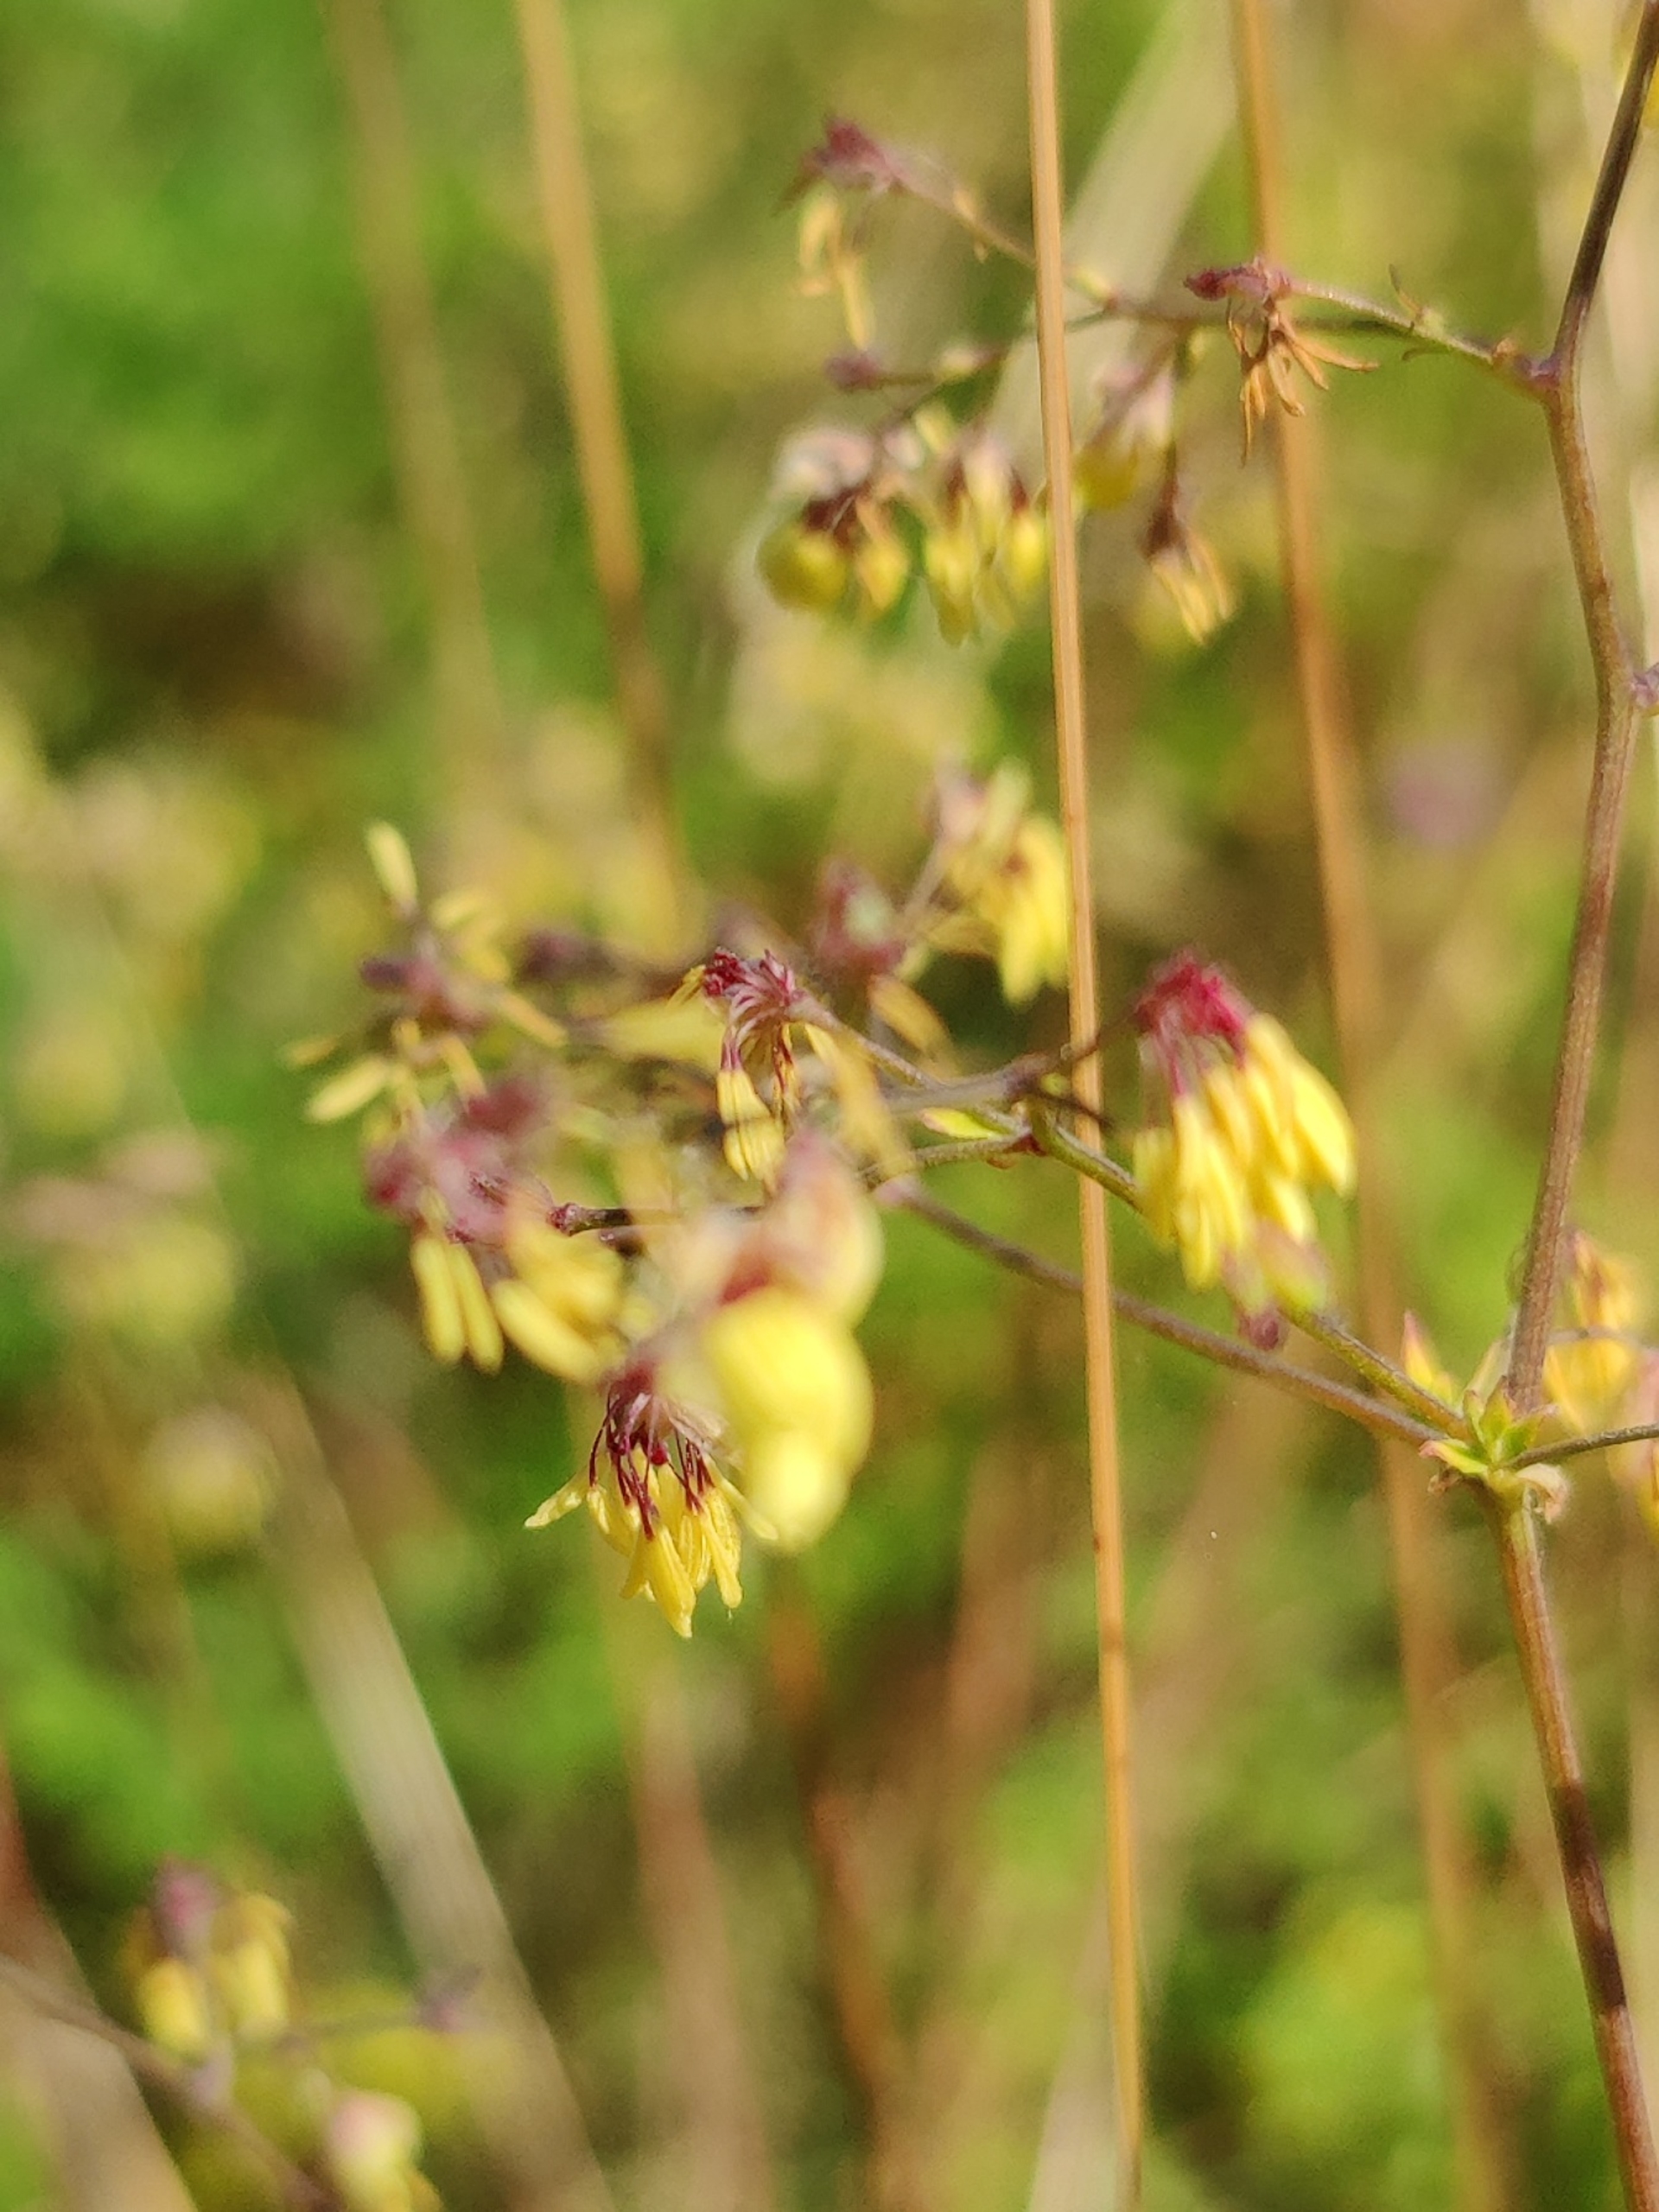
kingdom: Plantae
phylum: Tracheophyta
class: Magnoliopsida
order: Ranunculales
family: Ranunculaceae
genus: Thalictrum
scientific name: Thalictrum minus
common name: Liden frøstjerne
